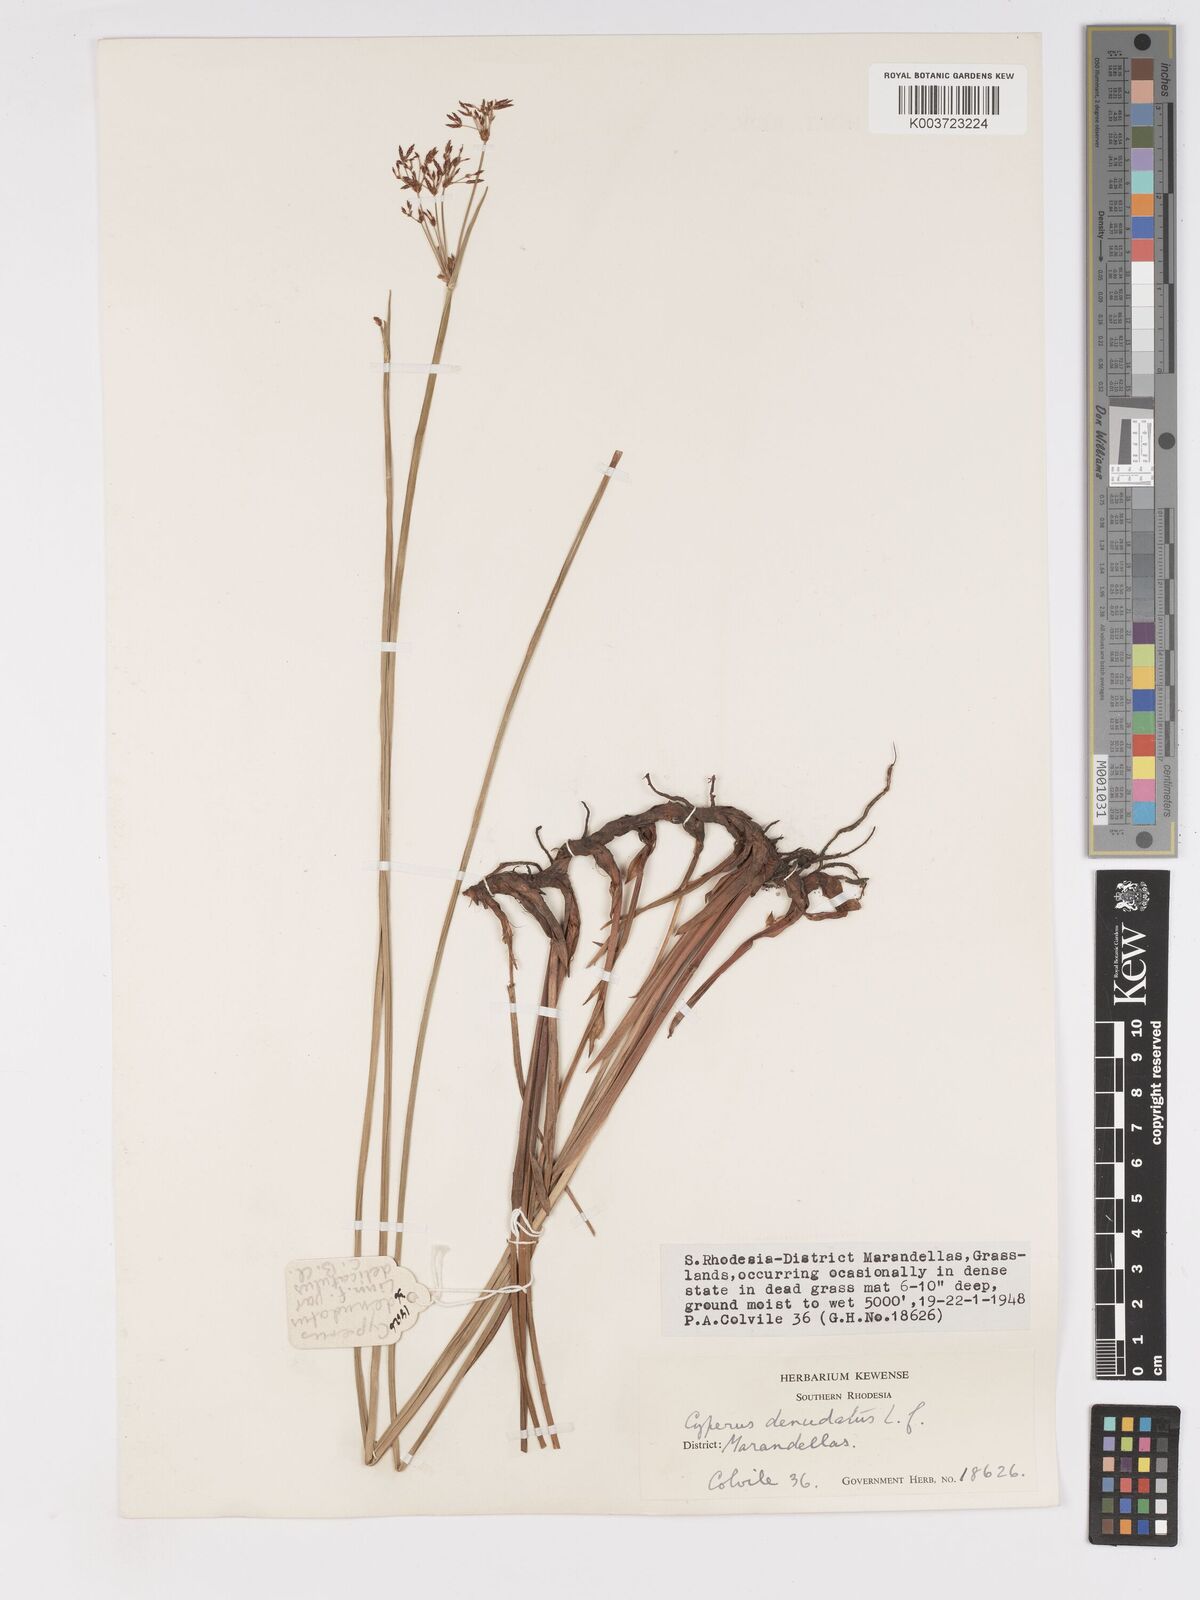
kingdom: Plantae
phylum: Tracheophyta
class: Liliopsida
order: Poales
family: Cyperaceae
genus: Cyperus
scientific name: Cyperus haspan
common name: Haspan flatsedge
